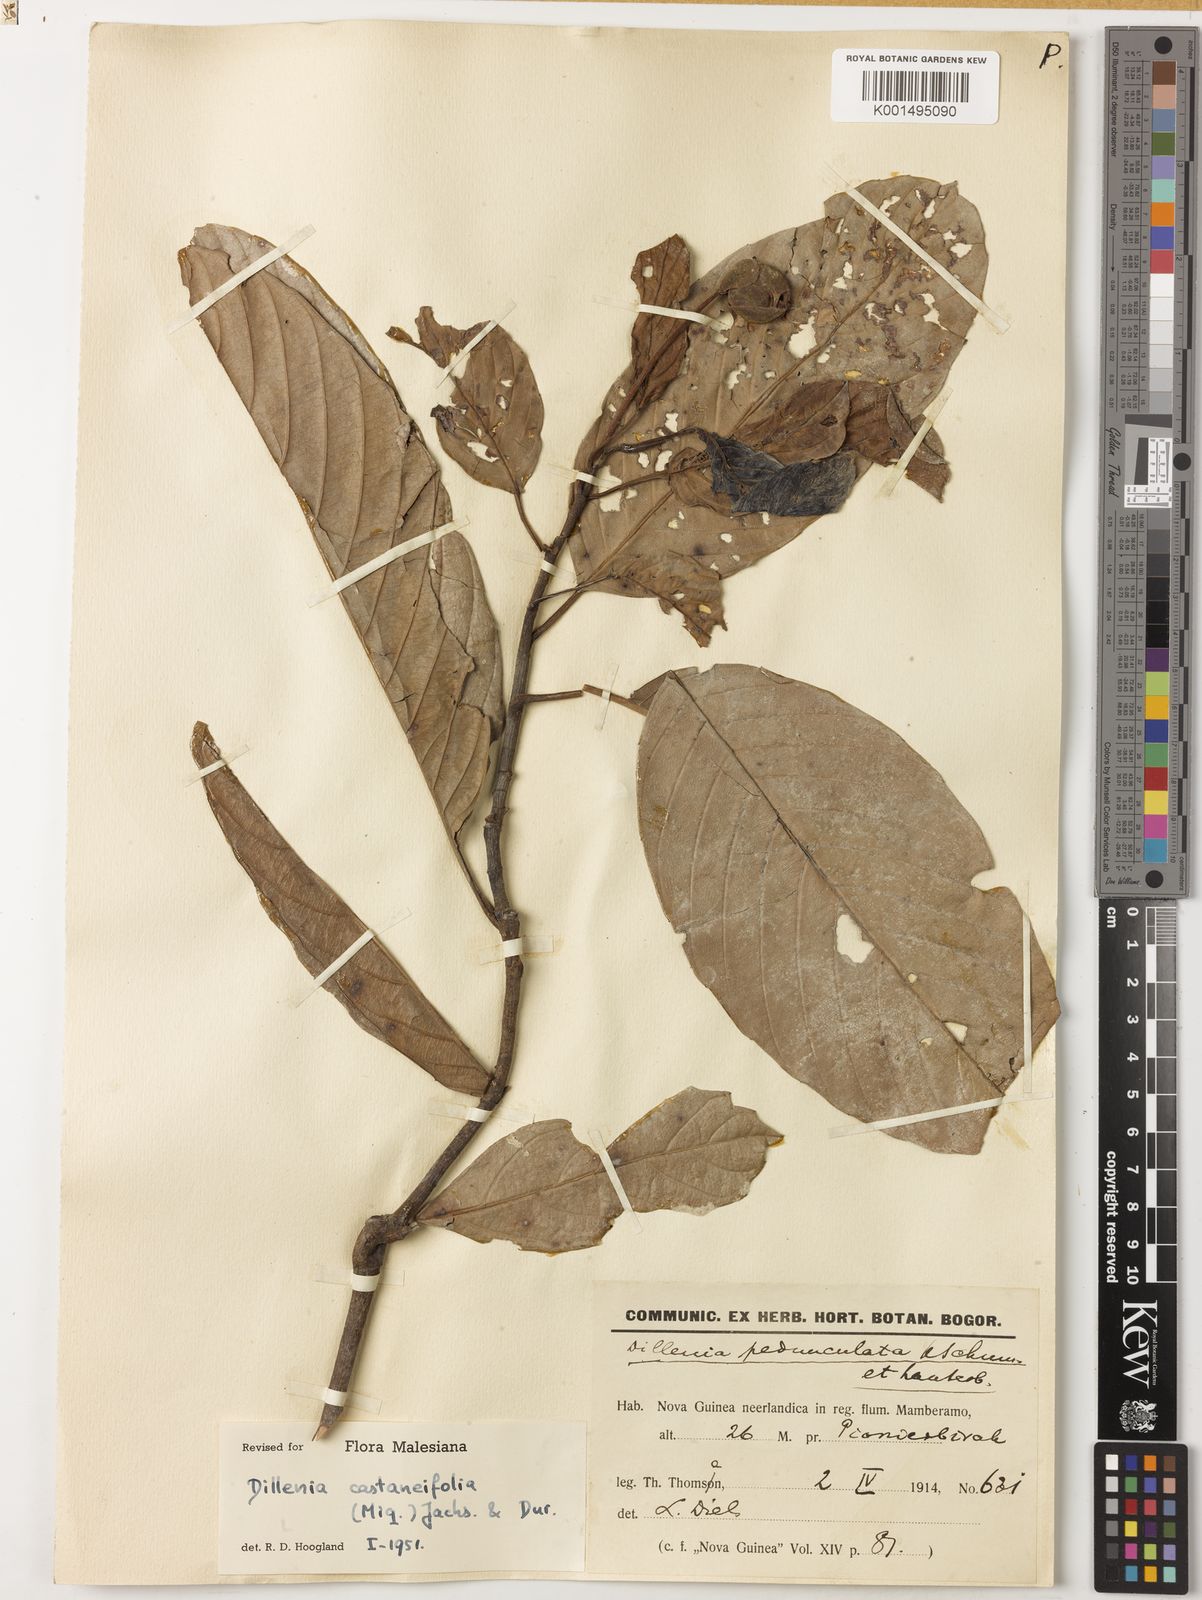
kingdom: Plantae
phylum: Tracheophyta
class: Magnoliopsida
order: Dilleniales
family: Dilleniaceae
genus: Dillenia
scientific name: Dillenia castaneifolia
